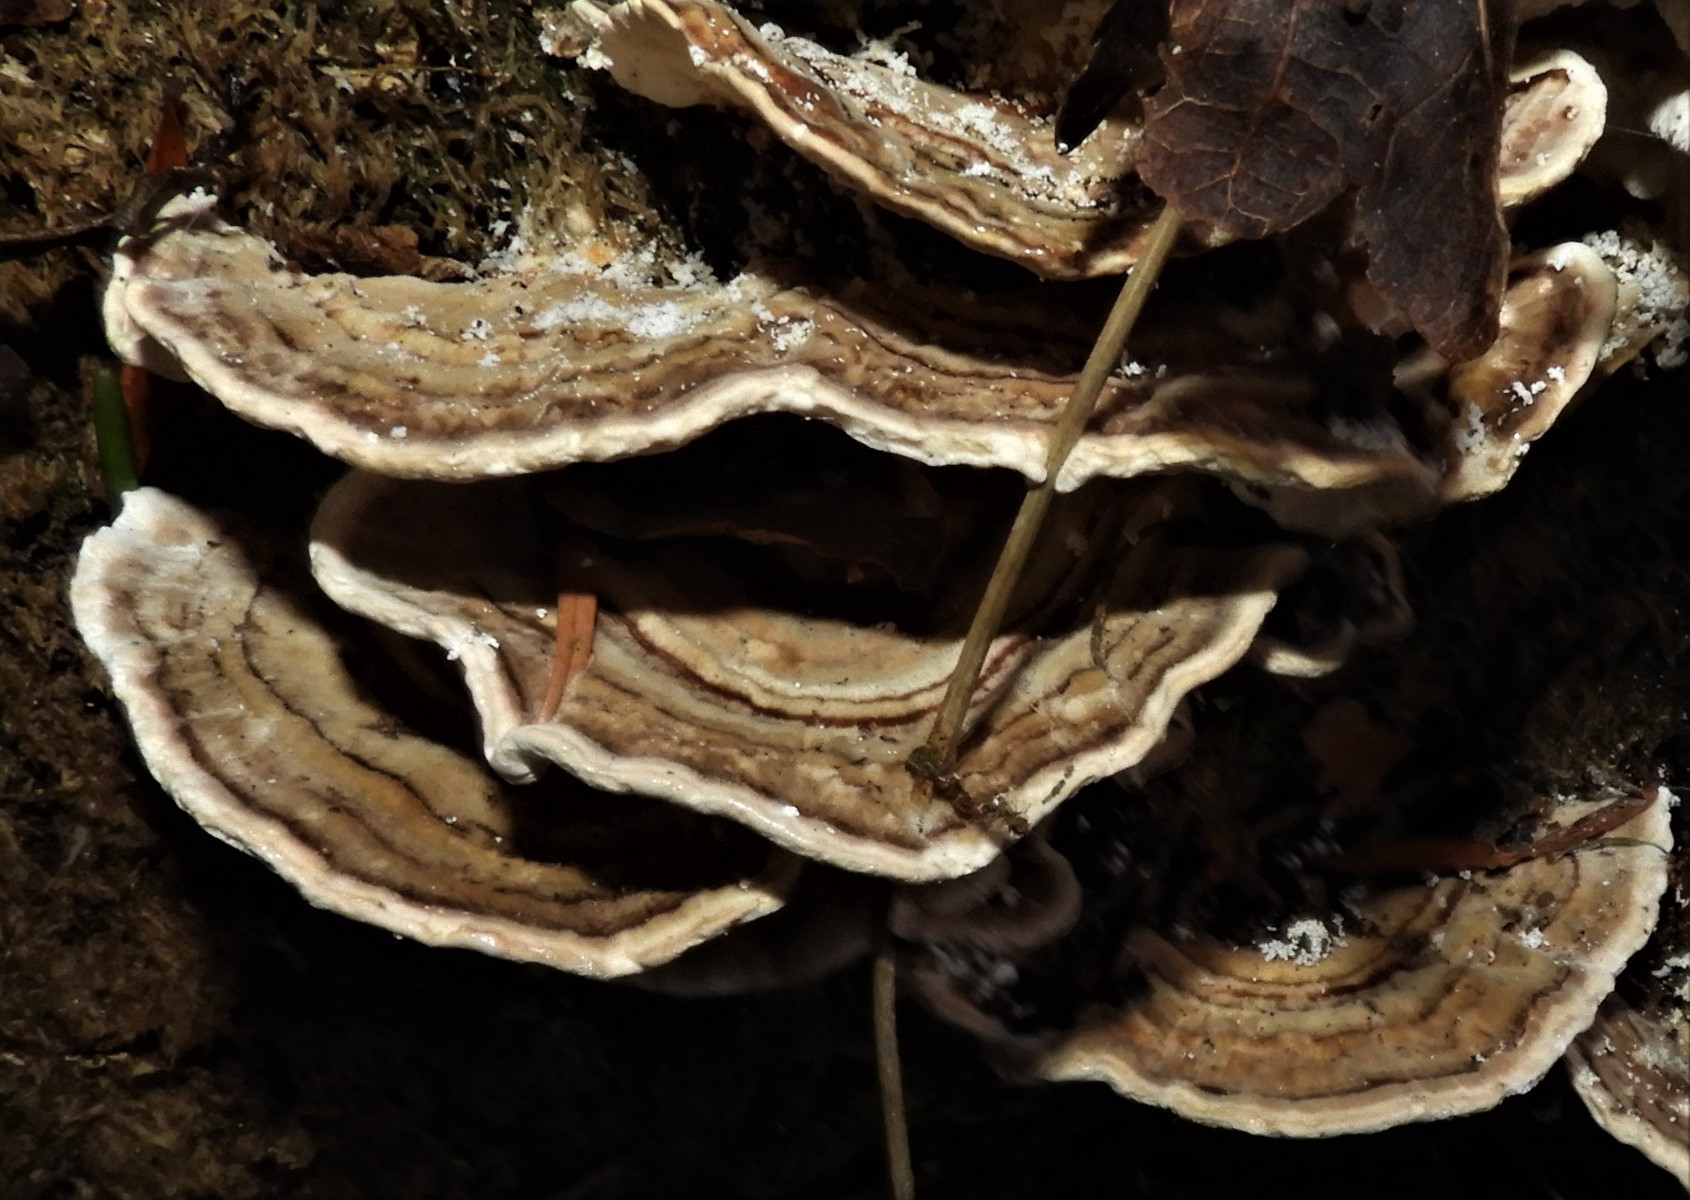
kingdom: Fungi
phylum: Basidiomycota
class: Agaricomycetes
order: Polyporales
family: Polyporaceae
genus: Trametes
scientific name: Trametes versicolor
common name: broget læderporesvamp
